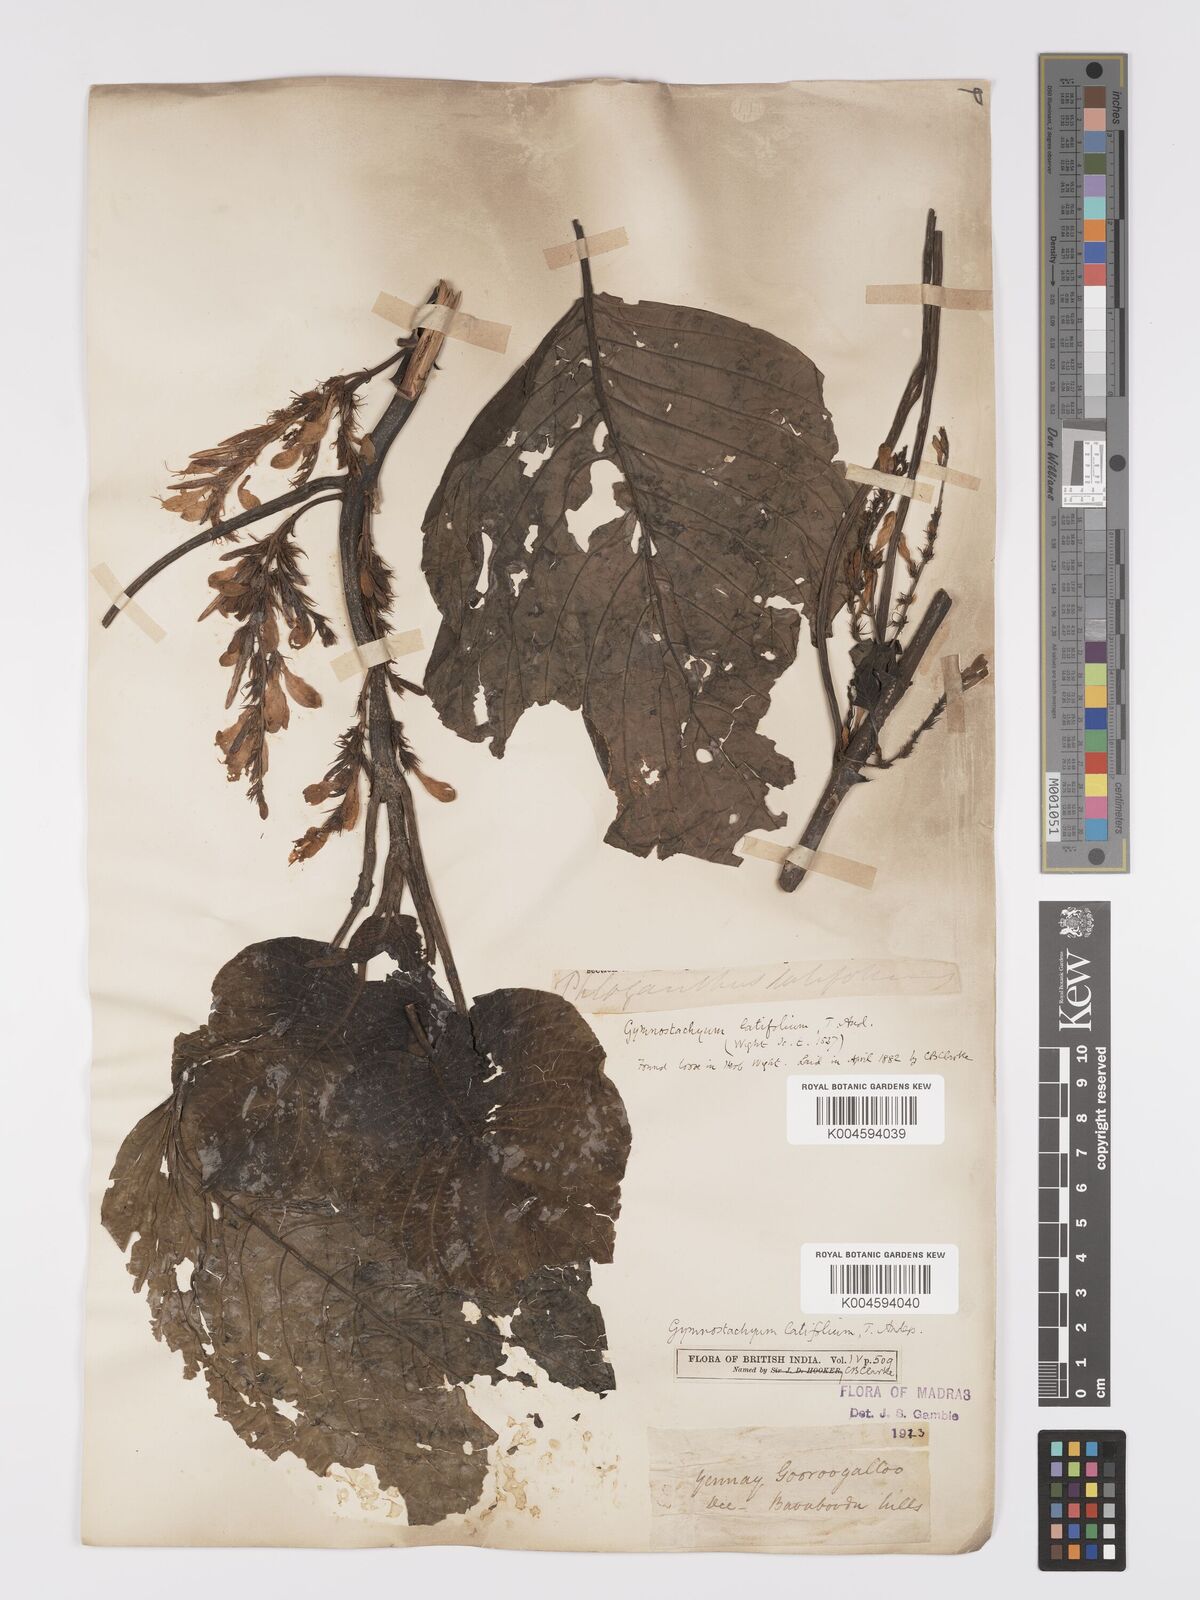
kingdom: Plantae
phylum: Tracheophyta
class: Magnoliopsida
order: Lamiales
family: Acanthaceae
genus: Gymnostachyum
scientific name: Gymnostachyum latifolium
